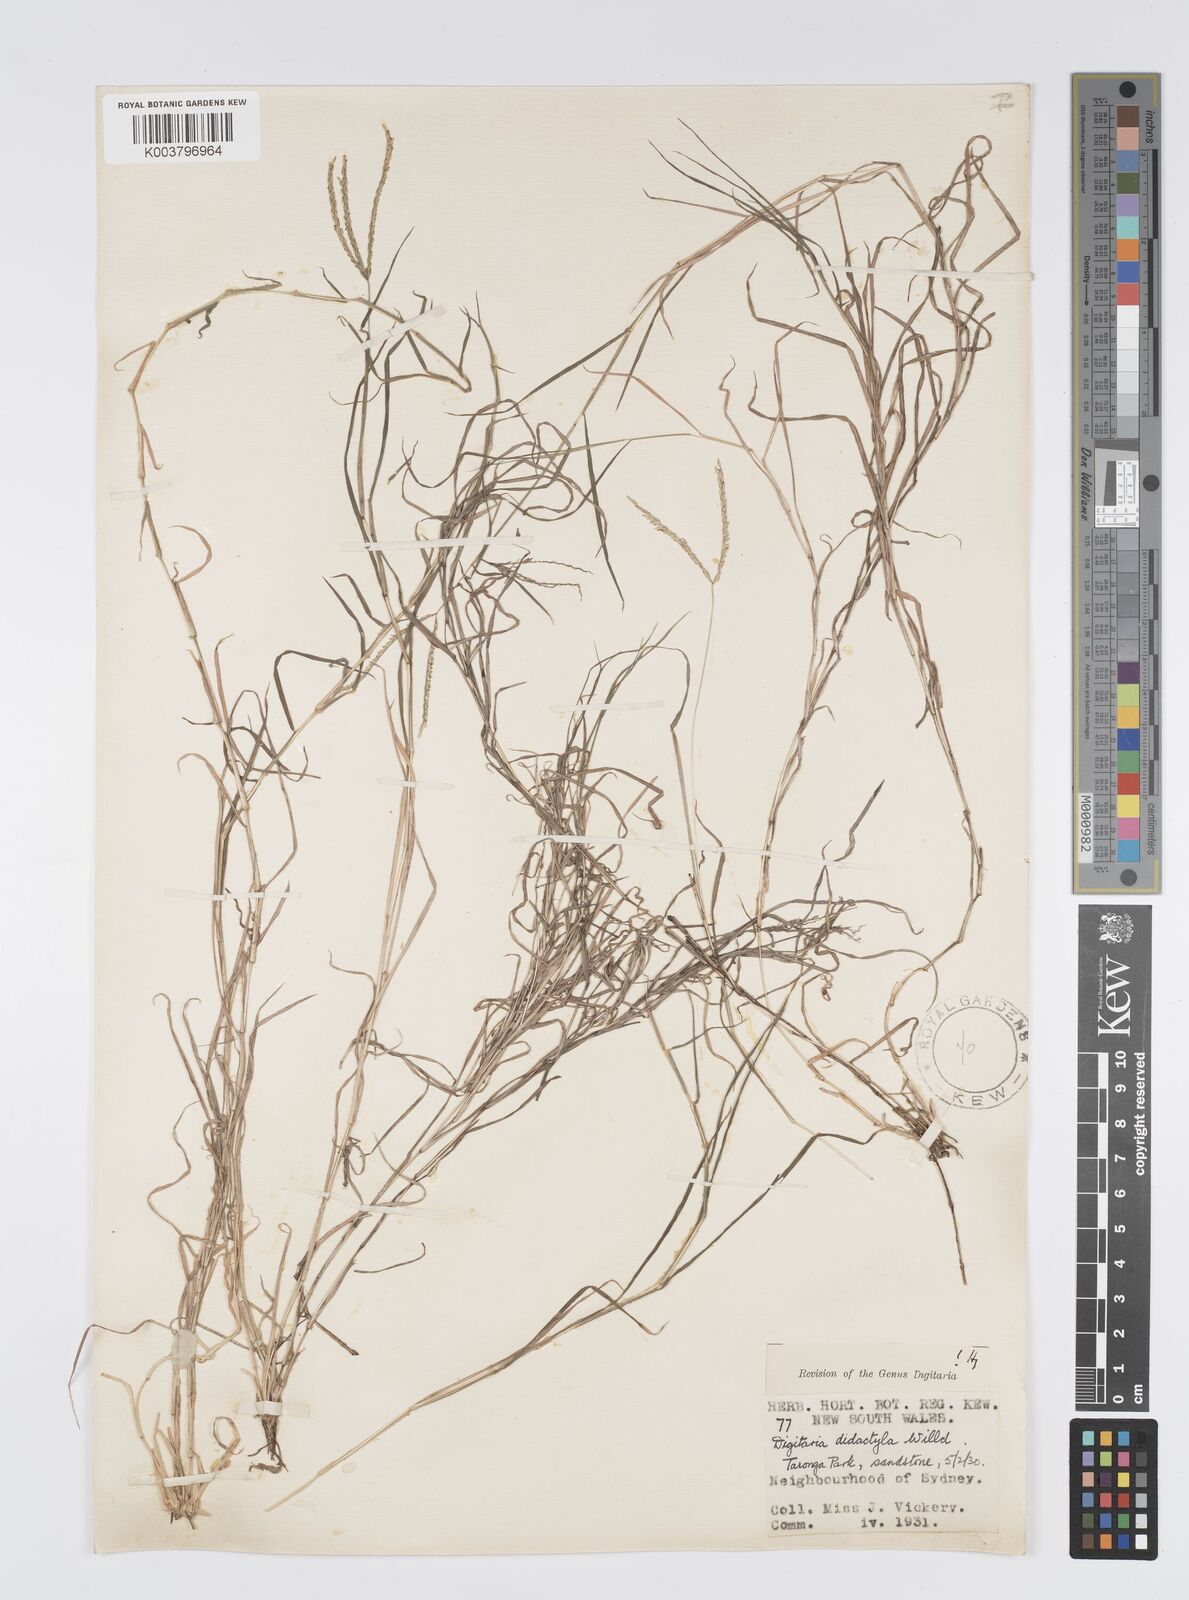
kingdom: Plantae
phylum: Tracheophyta
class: Liliopsida
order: Poales
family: Poaceae
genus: Digitaria
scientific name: Digitaria didactyla
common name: Blue couch
